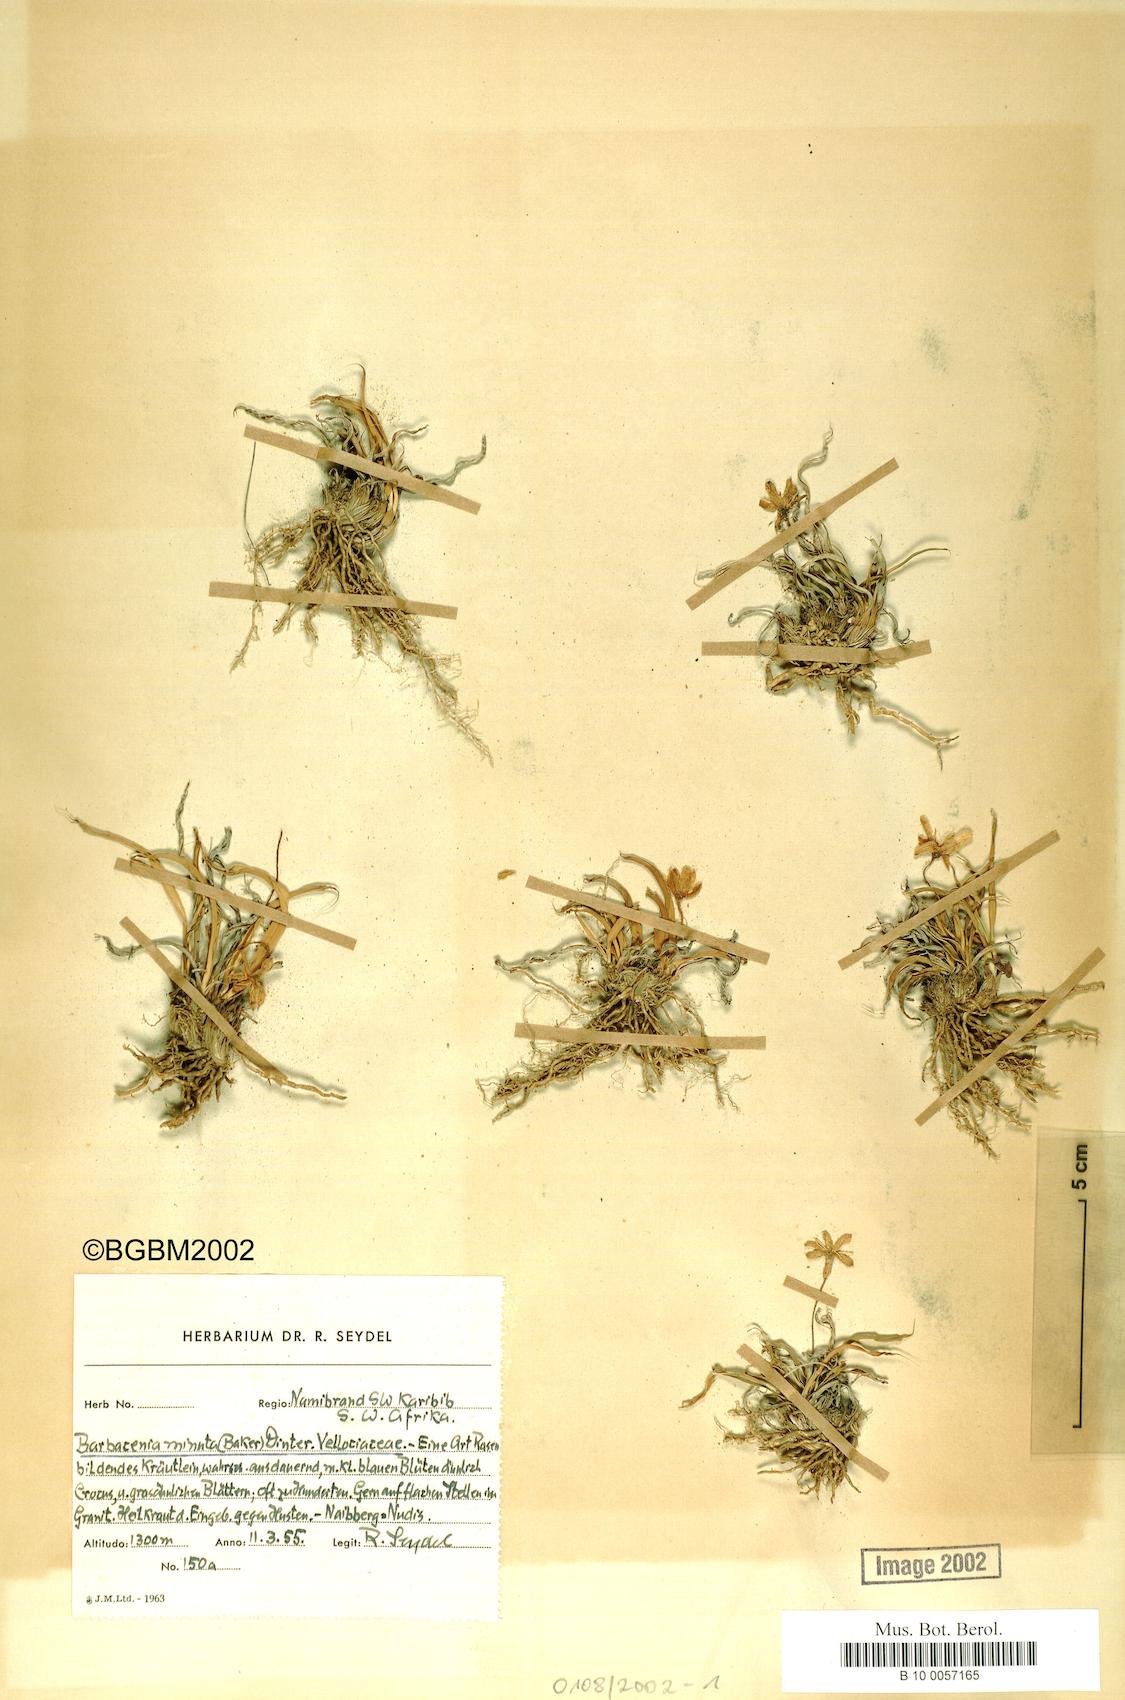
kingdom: Plantae
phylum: Tracheophyta
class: Liliopsida
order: Pandanales
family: Velloziaceae
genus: Xerophyta
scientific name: Xerophyta humilis
